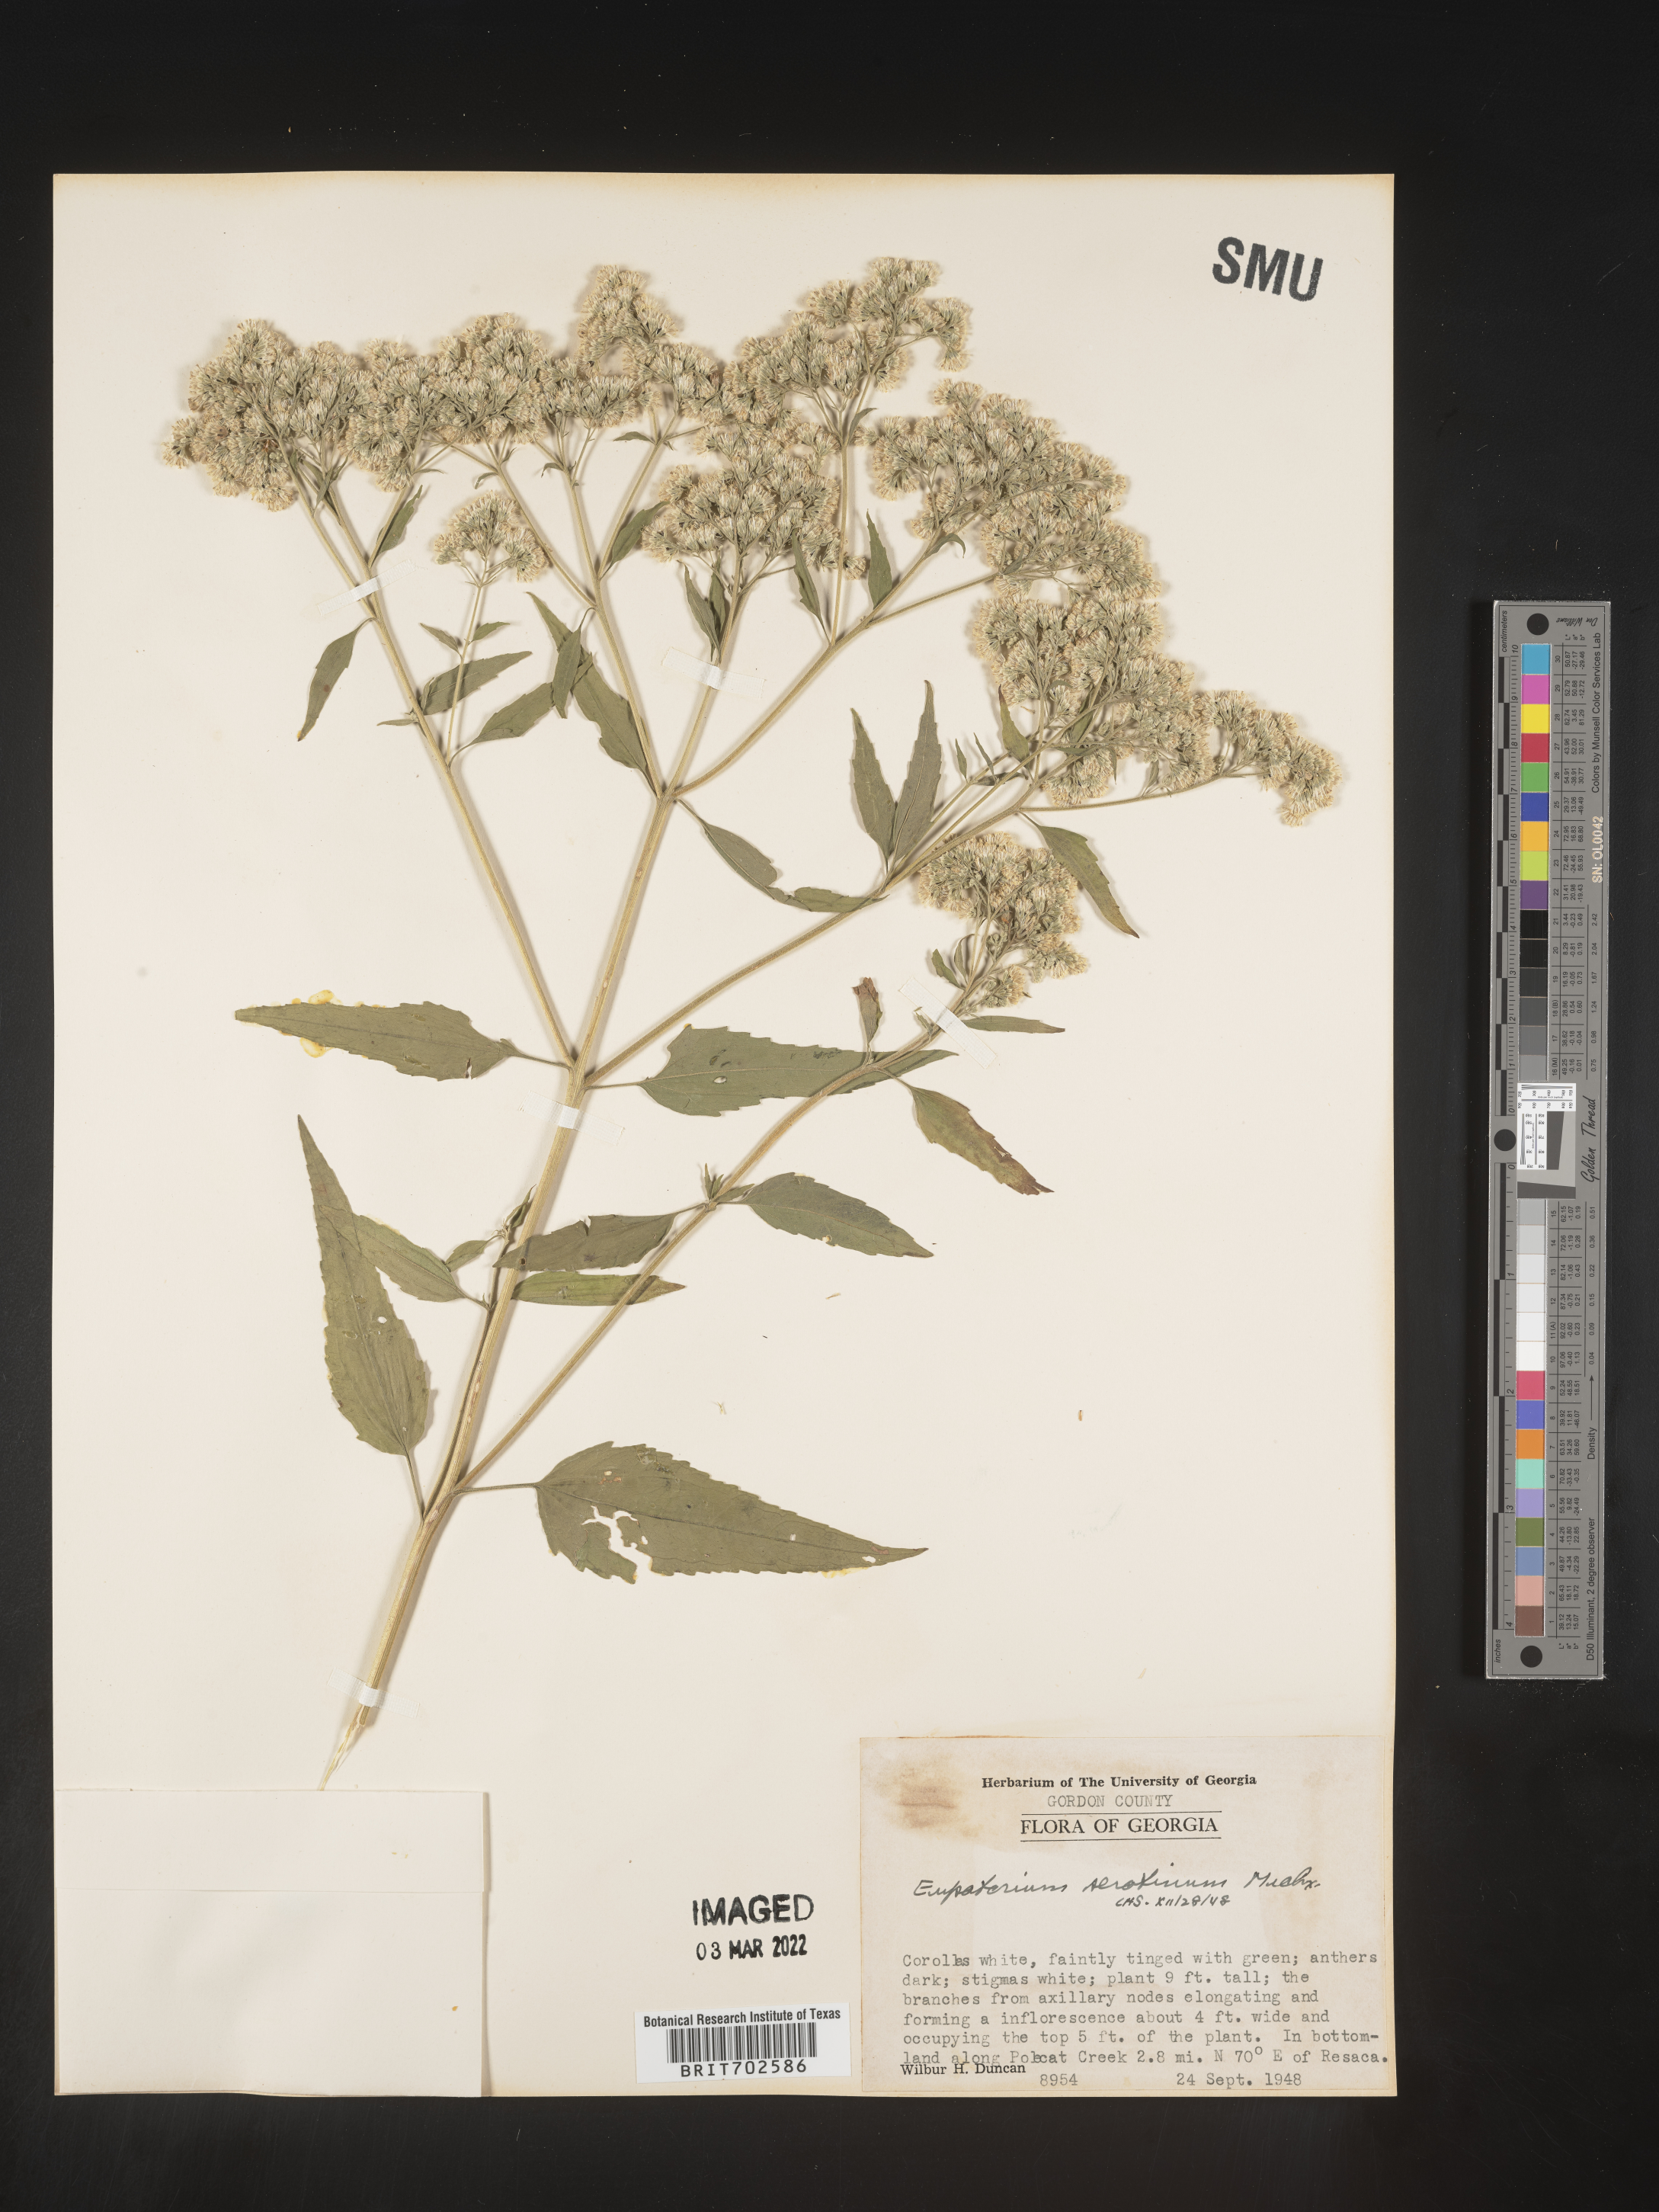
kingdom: Plantae
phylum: Tracheophyta
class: Magnoliopsida
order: Asterales
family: Asteraceae
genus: Eupatorium
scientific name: Eupatorium serotinum
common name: Late boneset
